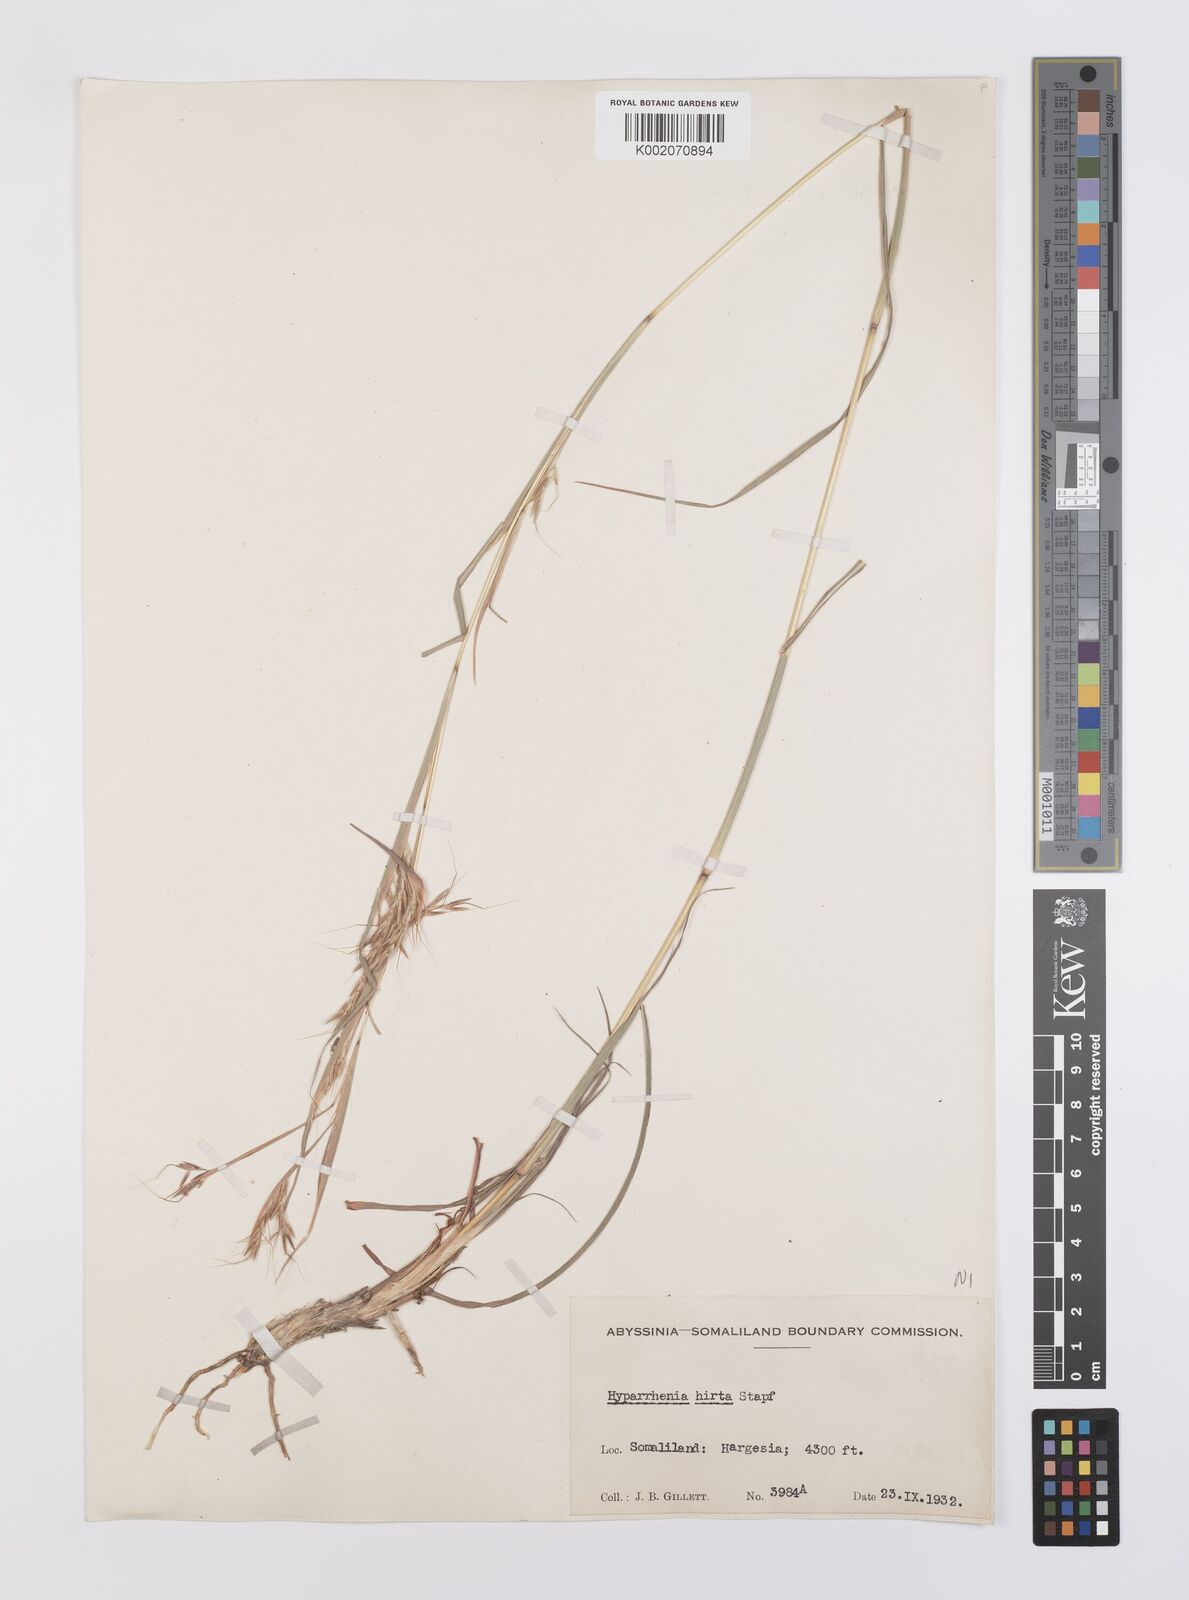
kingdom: Plantae
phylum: Tracheophyta
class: Liliopsida
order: Poales
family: Poaceae
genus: Hyparrhenia
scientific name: Hyparrhenia hirta
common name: Thatching grass
